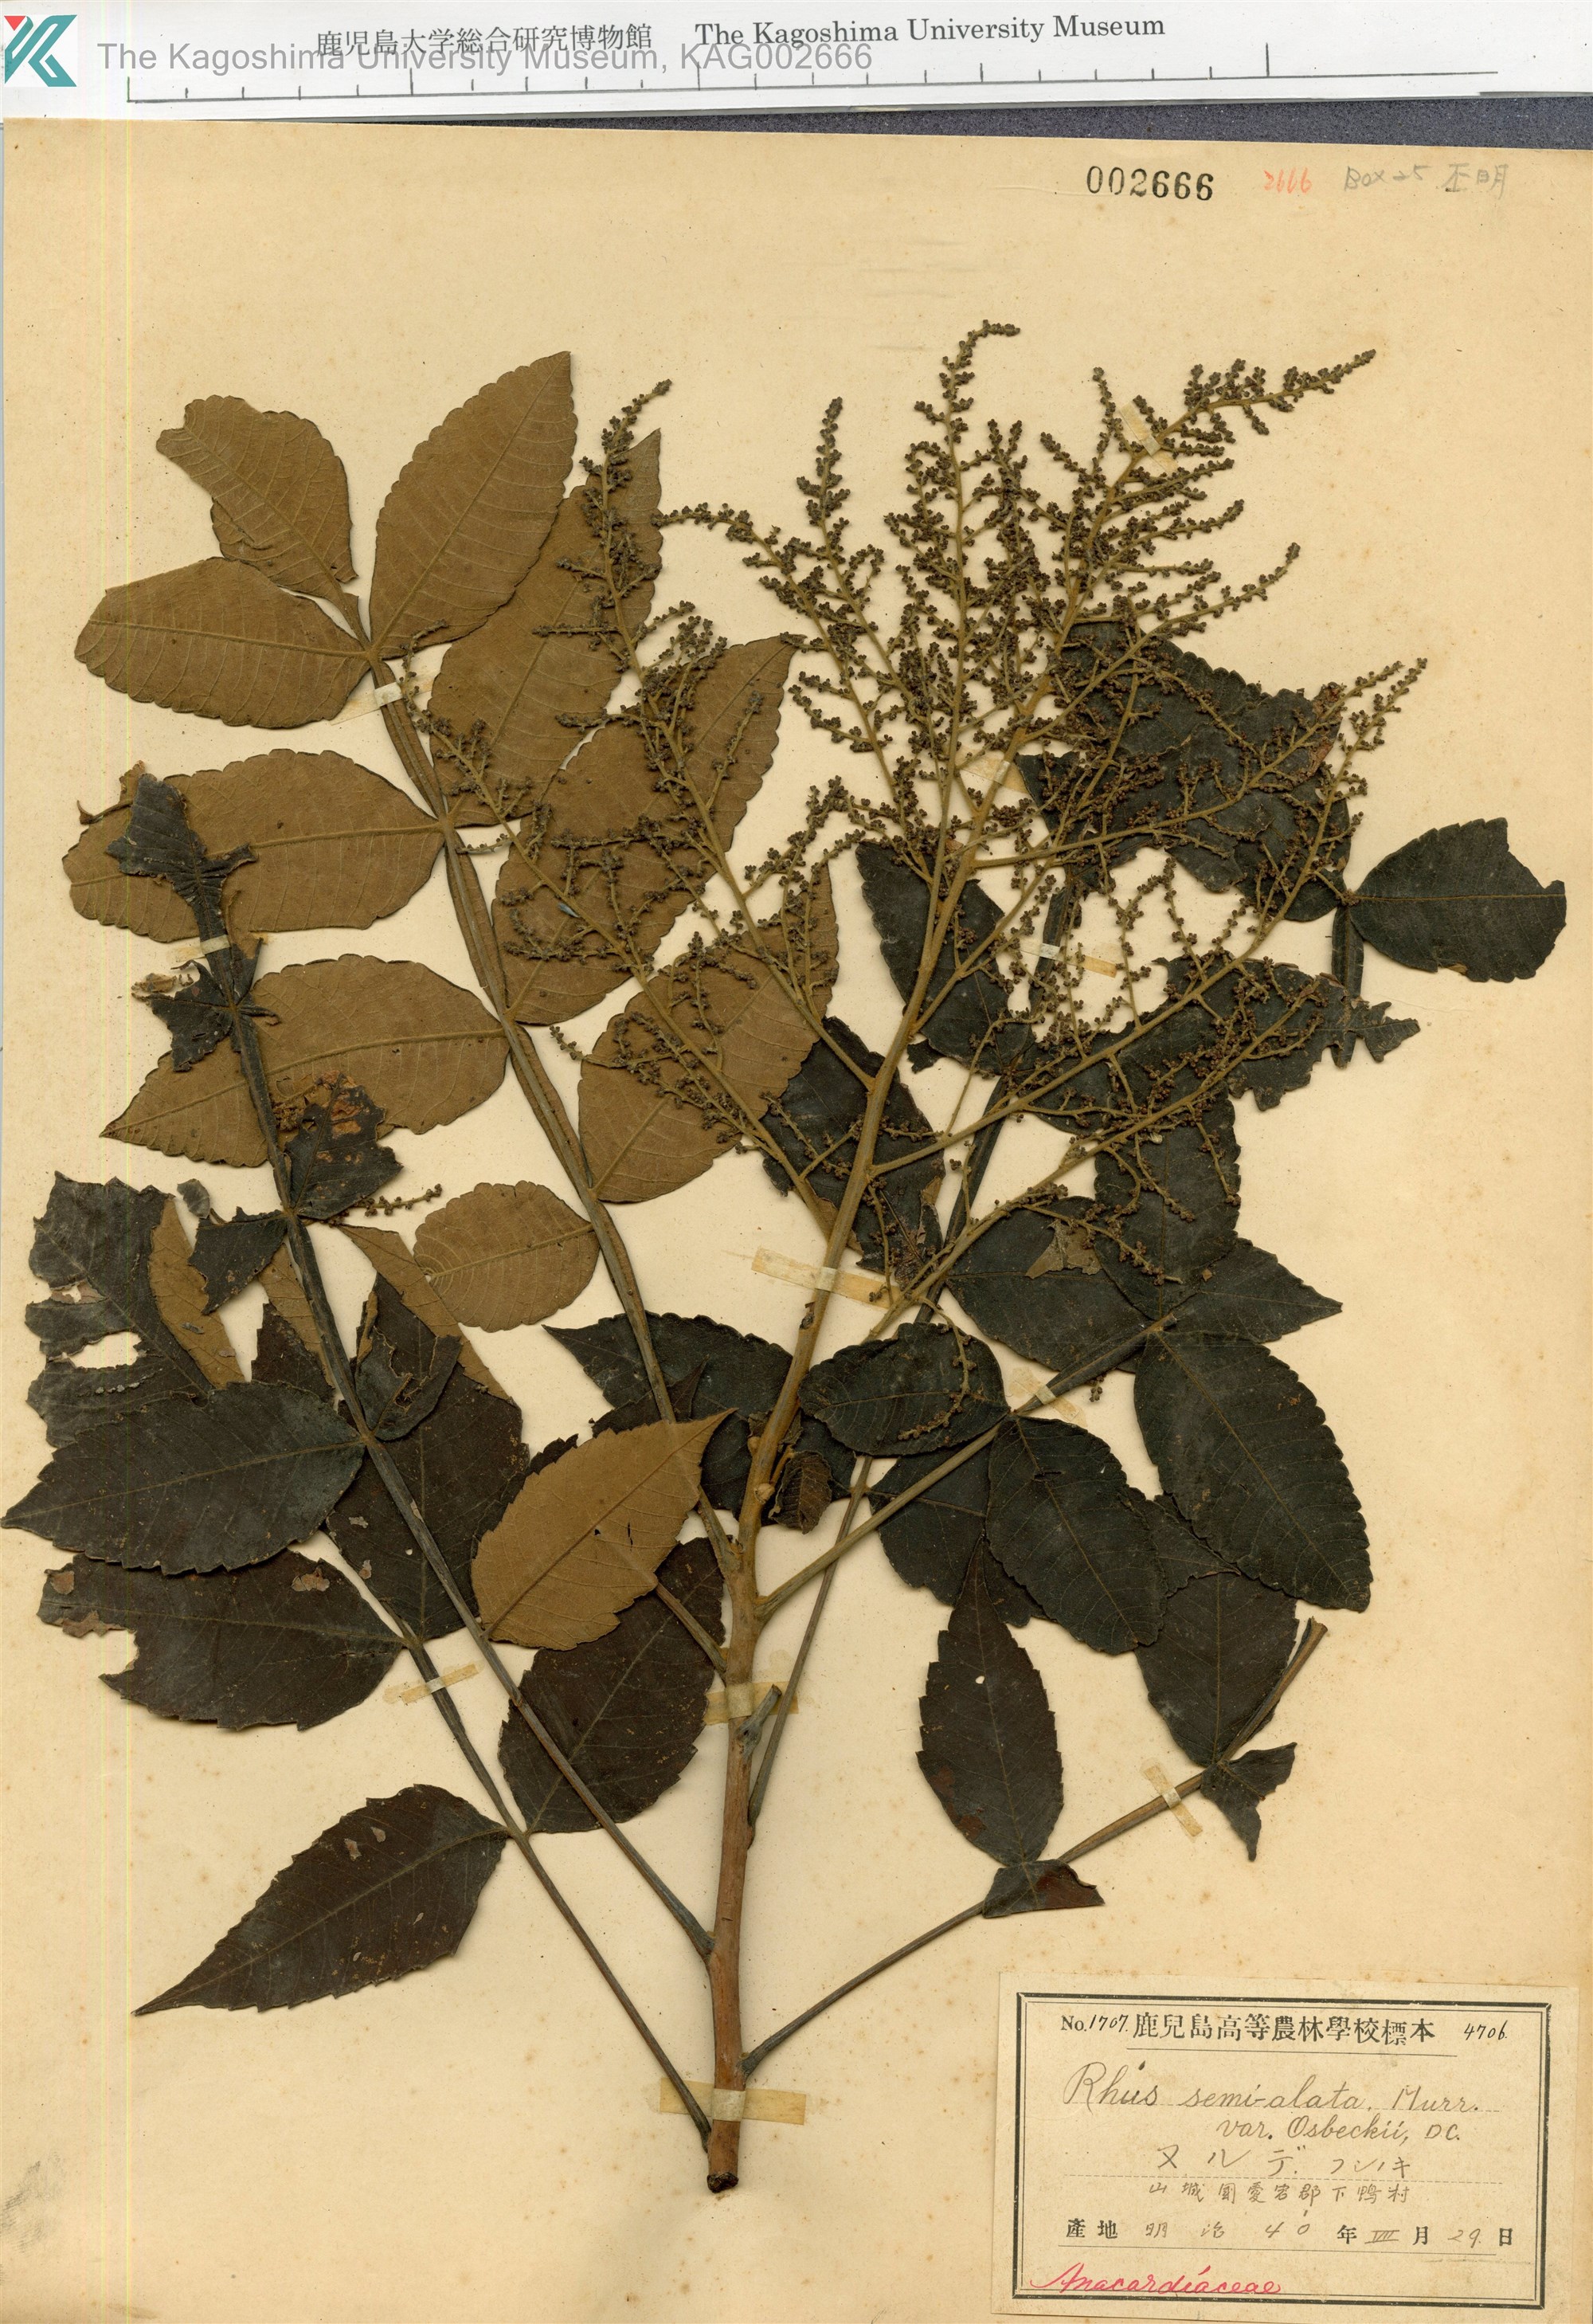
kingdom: Plantae
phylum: Tracheophyta
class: Magnoliopsida
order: Sapindales
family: Anacardiaceae
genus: Rhus
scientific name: Rhus chinensis
